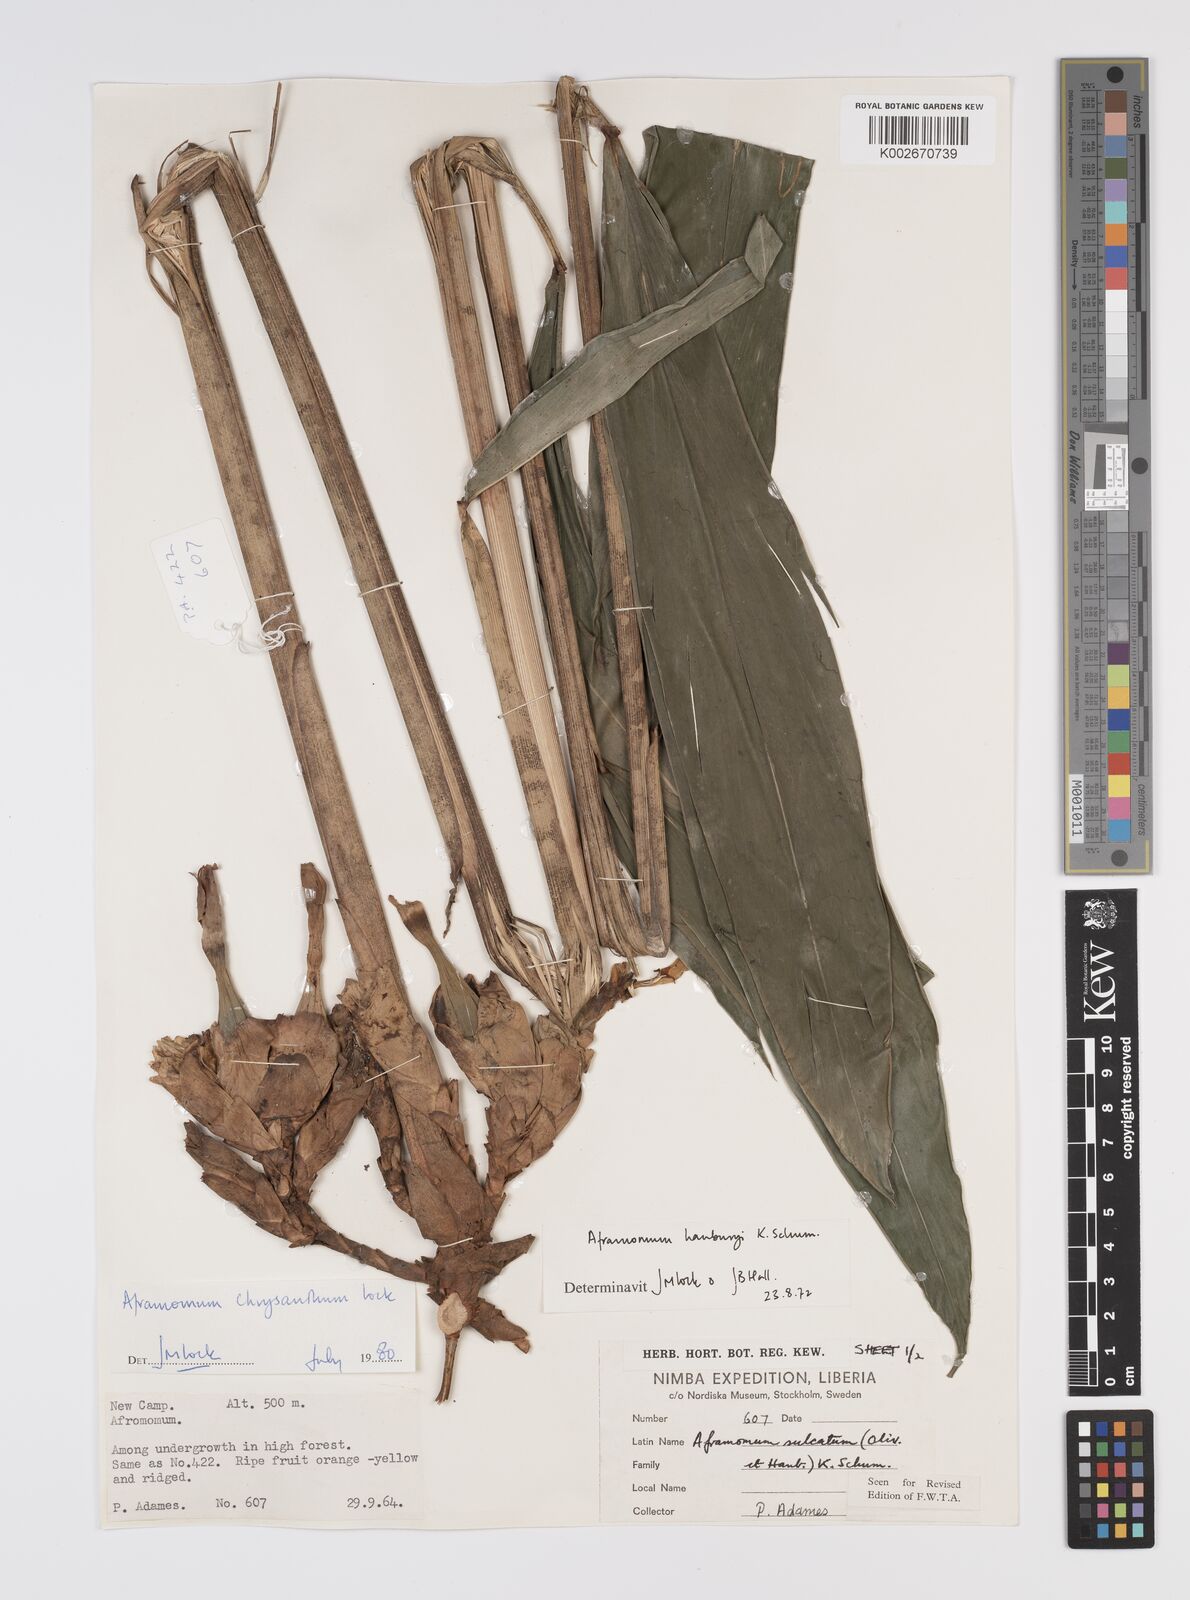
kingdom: Plantae
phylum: Tracheophyta
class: Liliopsida
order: Zingiberales
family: Zingiberaceae
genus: Aframomum
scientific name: Aframomum chrysanthum
